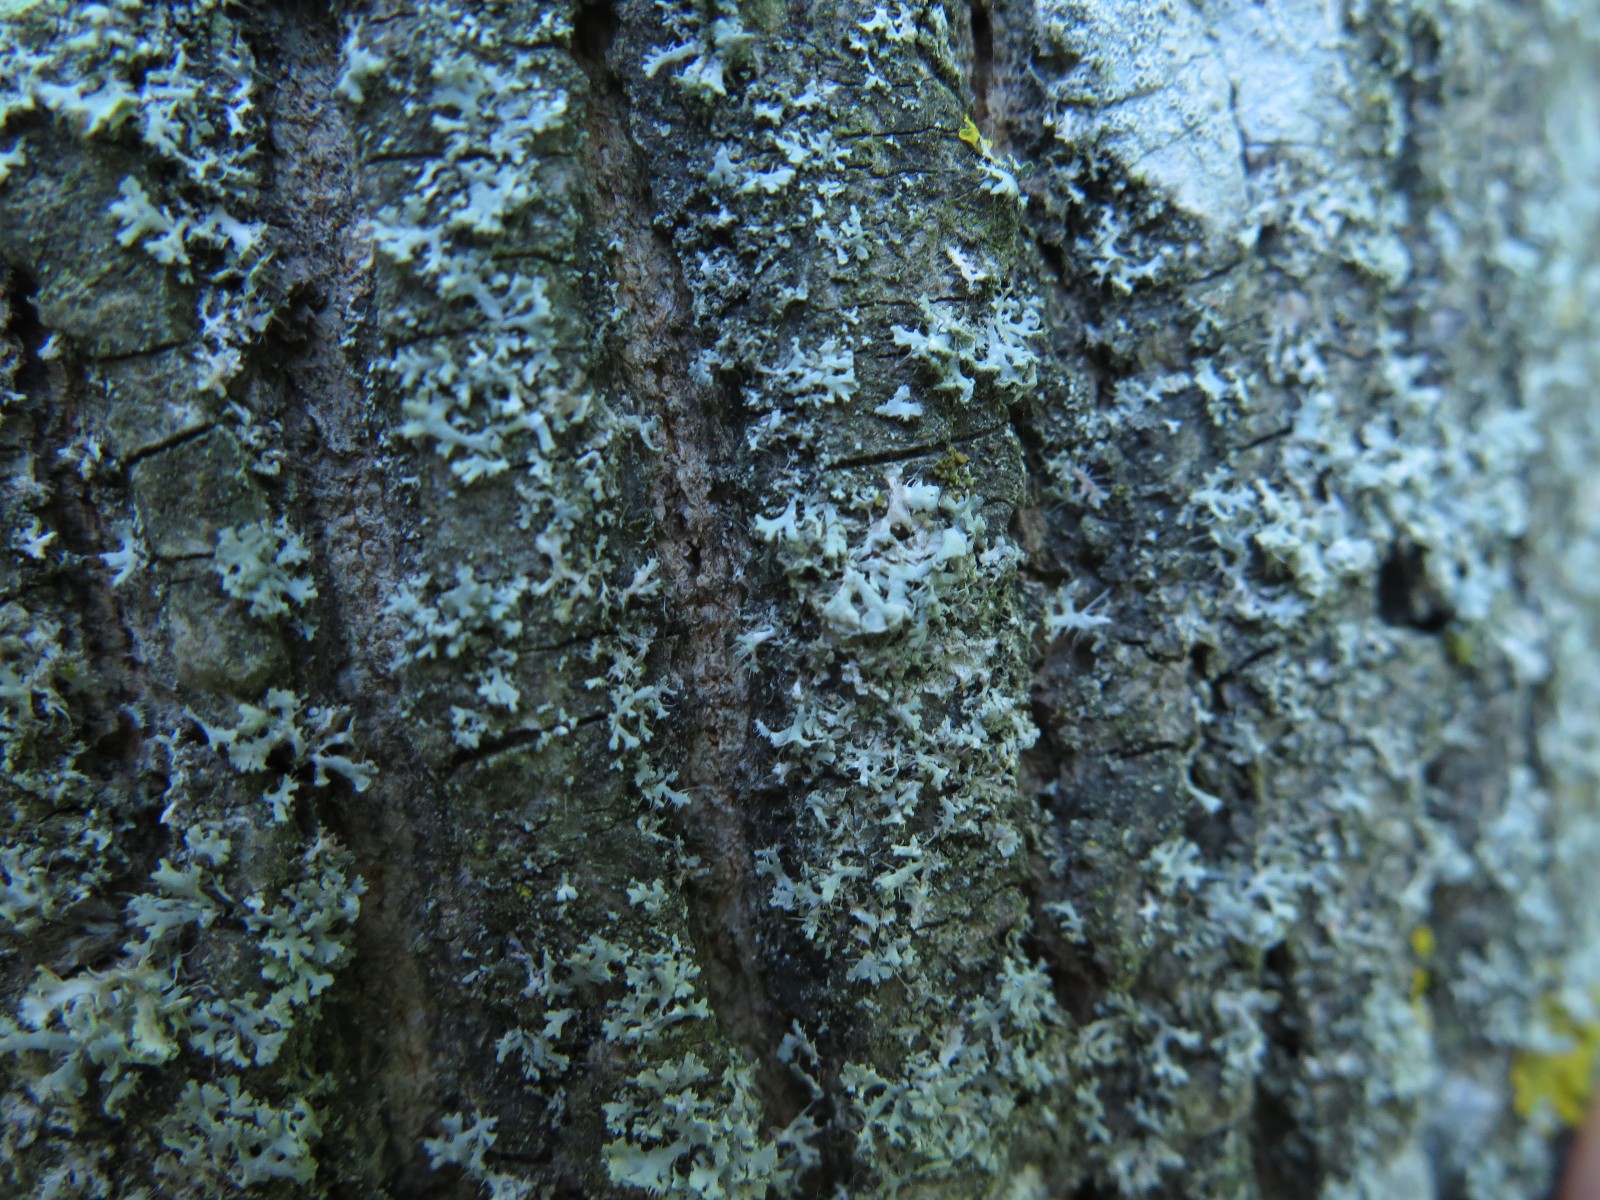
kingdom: Fungi
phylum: Ascomycota
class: Lecanoromycetes
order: Caliciales
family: Physciaceae
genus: Physcia
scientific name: Physcia tenella
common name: spæd rosetlav
